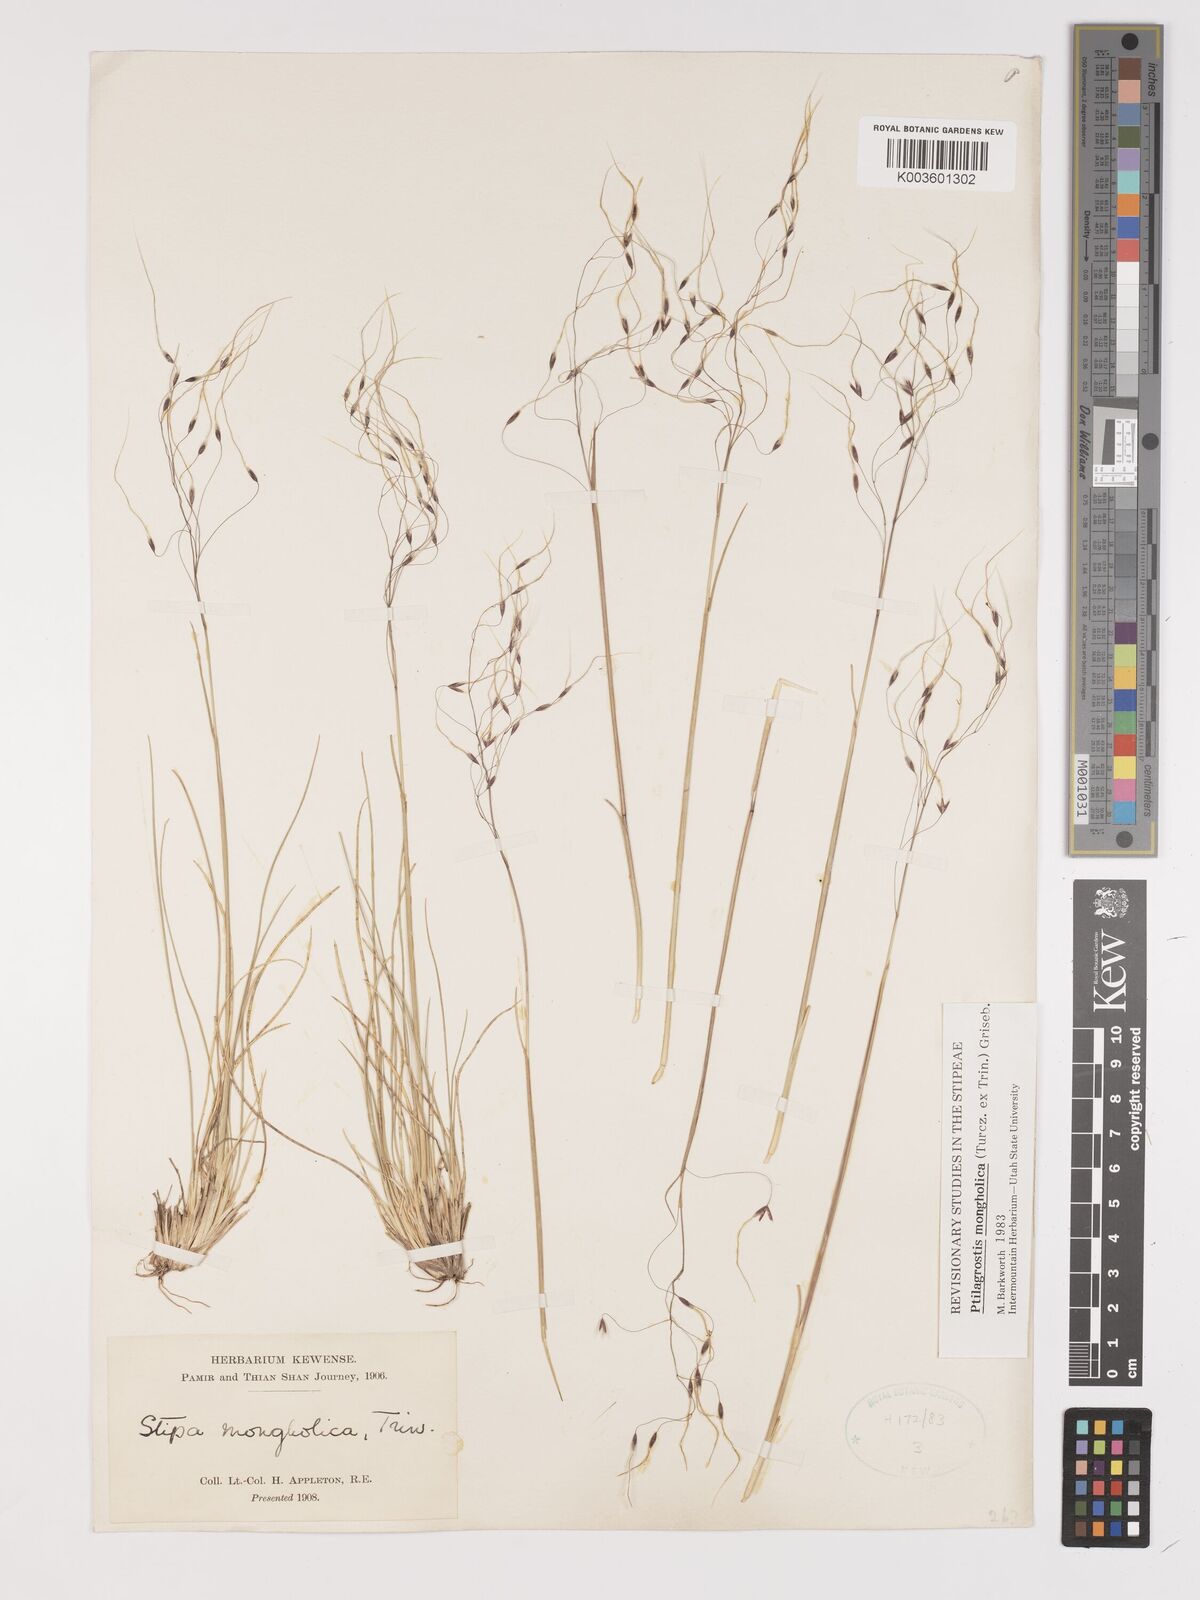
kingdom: Plantae
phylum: Tracheophyta
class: Liliopsida
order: Poales
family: Poaceae
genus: Ptilagrostis
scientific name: Ptilagrostis mongholica
